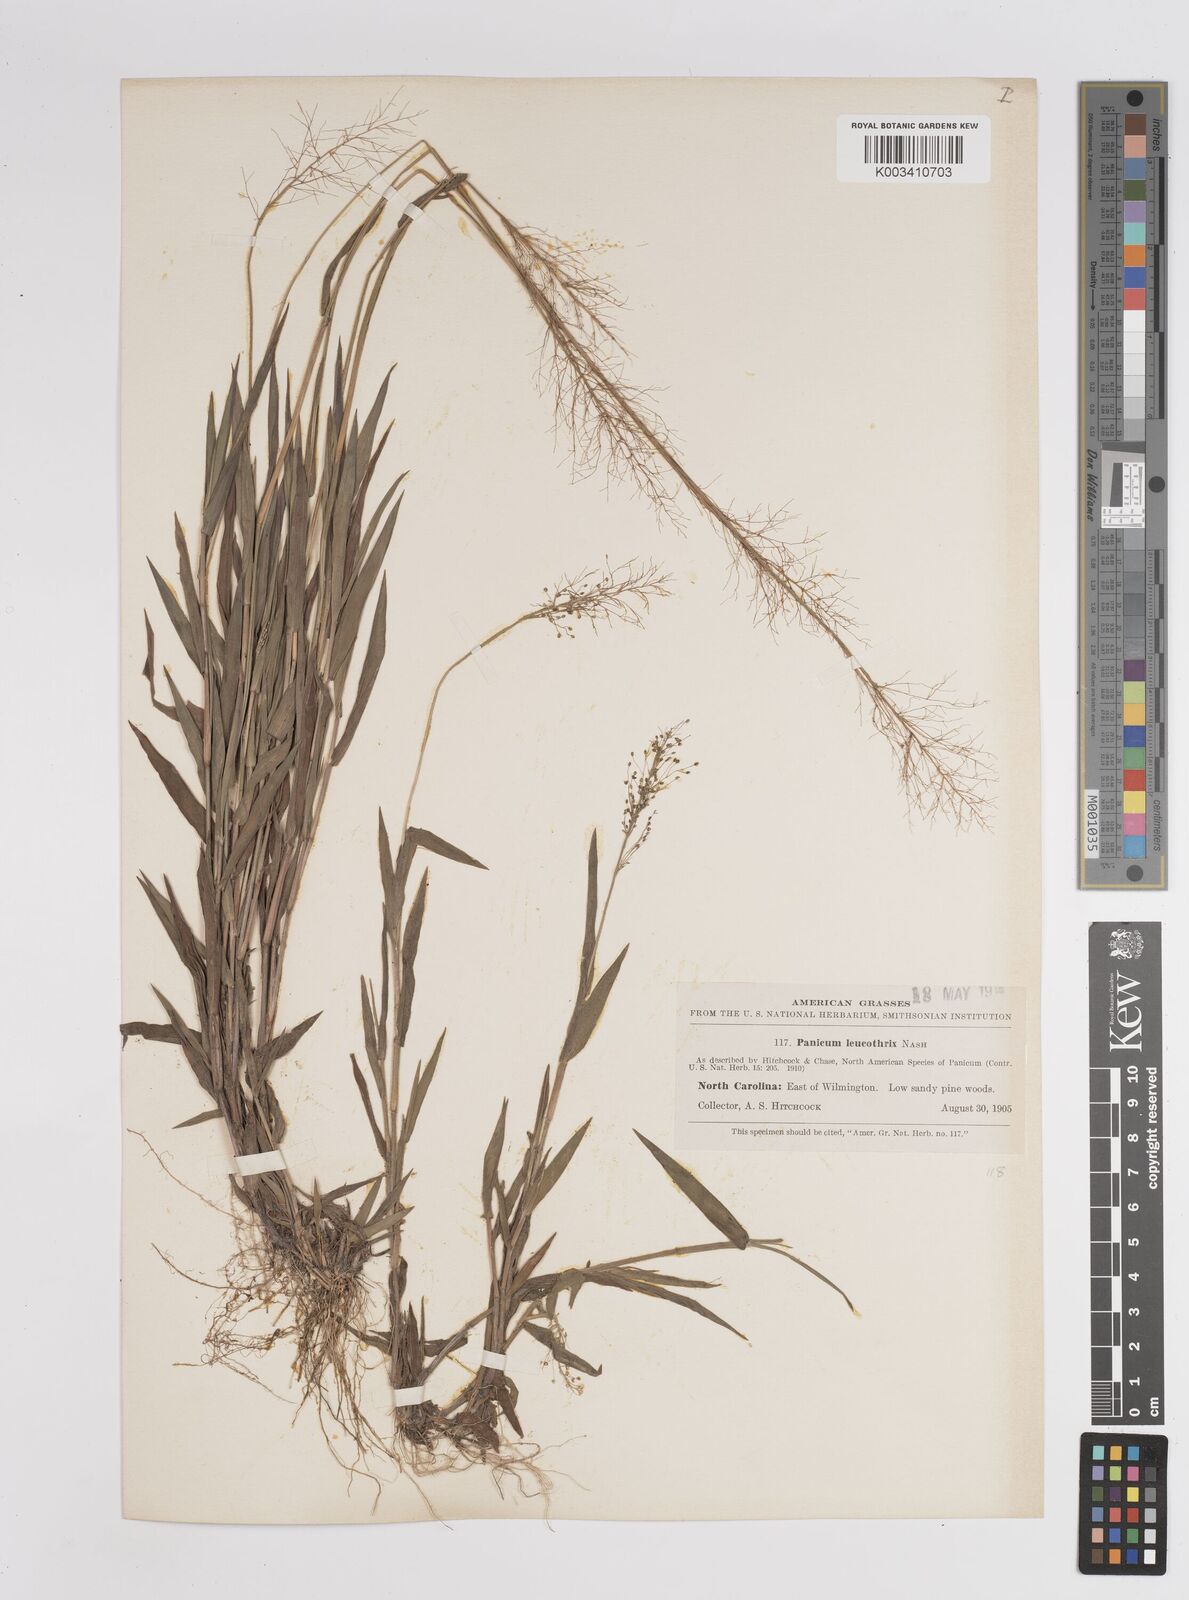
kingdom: Plantae
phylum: Tracheophyta
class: Liliopsida
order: Poales
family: Poaceae
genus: Dichanthelium
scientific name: Dichanthelium leucothrix
